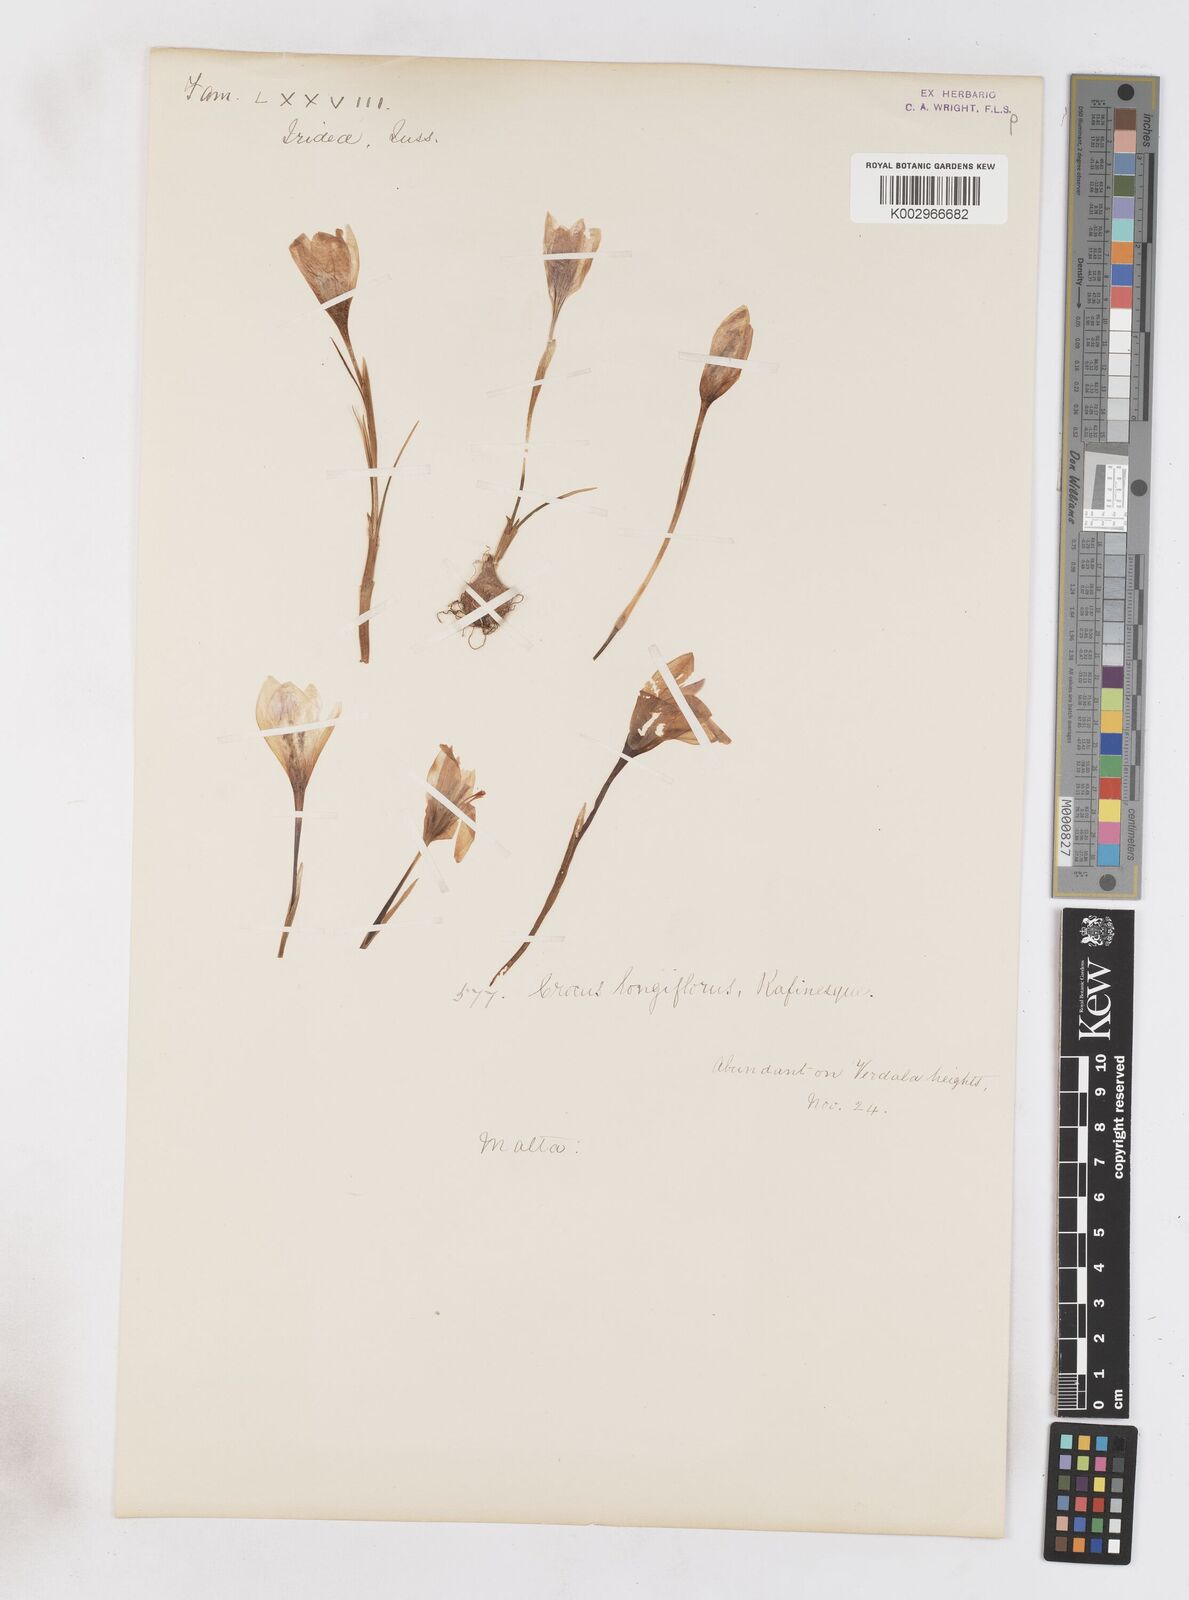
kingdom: Plantae
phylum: Tracheophyta
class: Liliopsida
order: Asparagales
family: Iridaceae
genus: Crocus
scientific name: Crocus longiflorus
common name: Italian crocus
